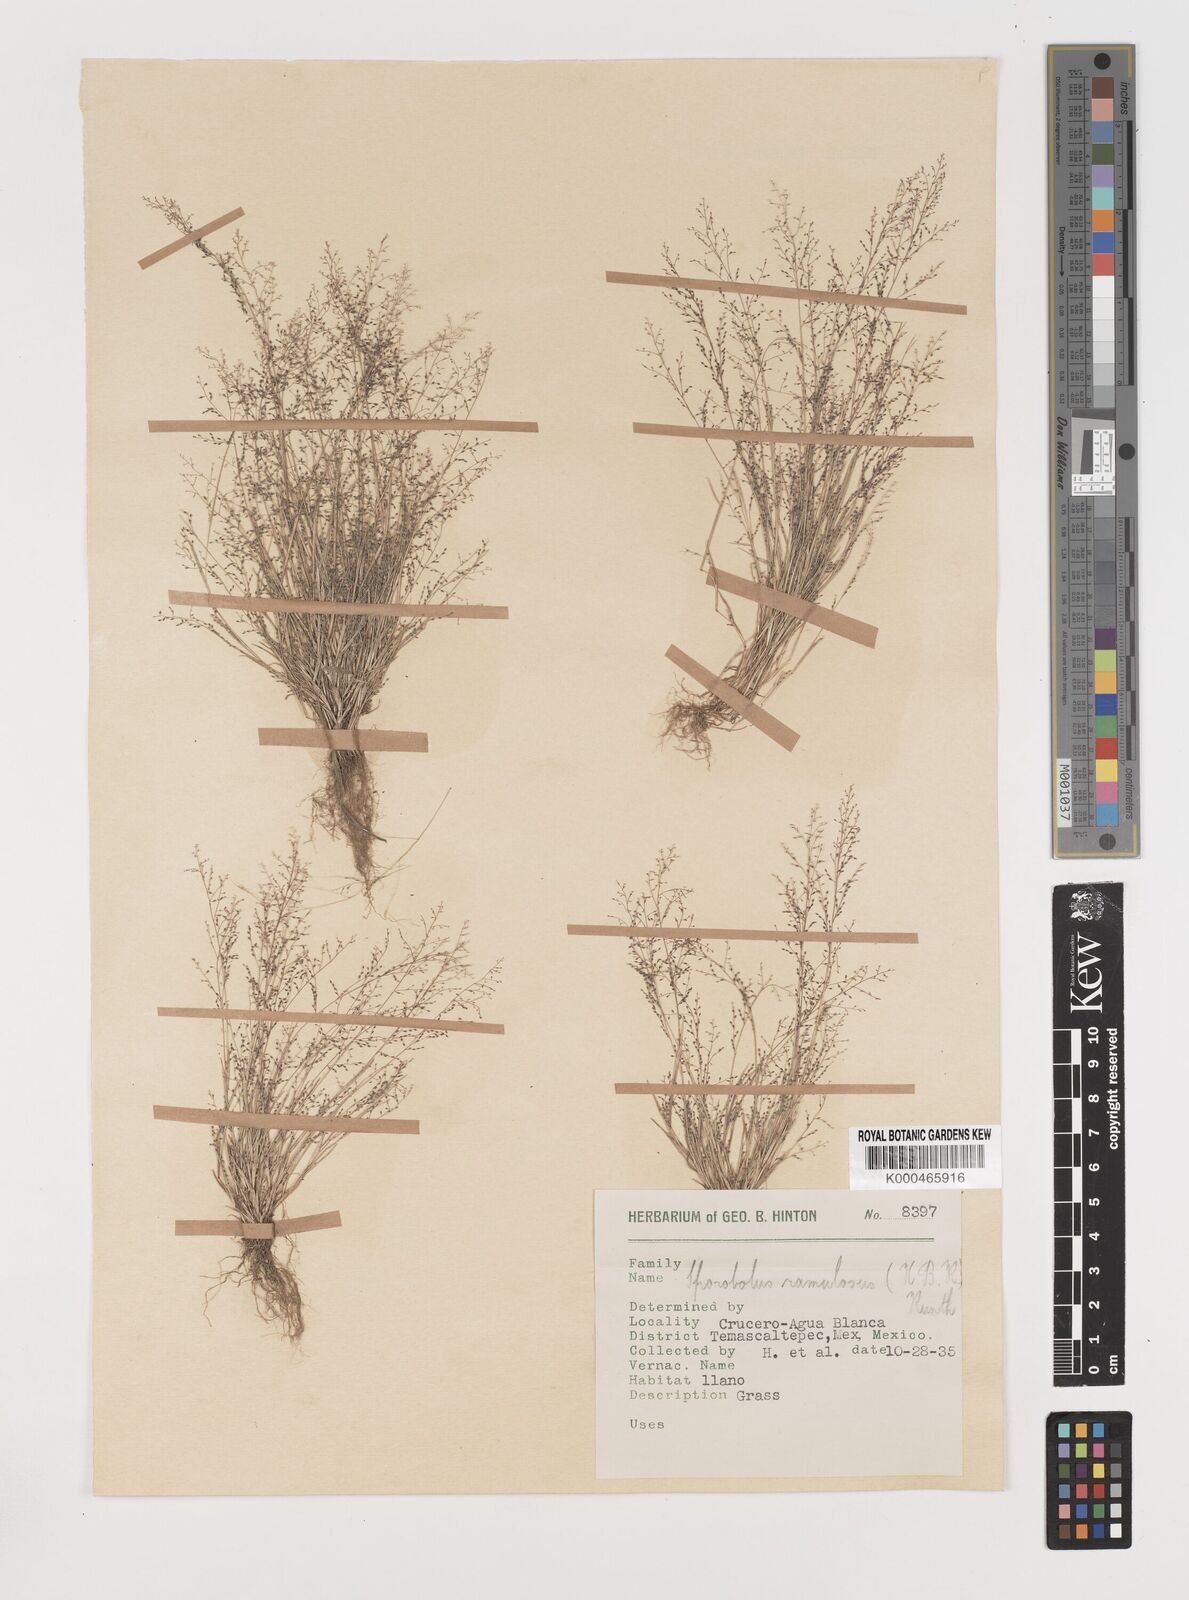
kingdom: Plantae
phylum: Tracheophyta
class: Liliopsida
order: Poales
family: Poaceae
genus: Muhlenbergia
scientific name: Muhlenbergia ramulosa
